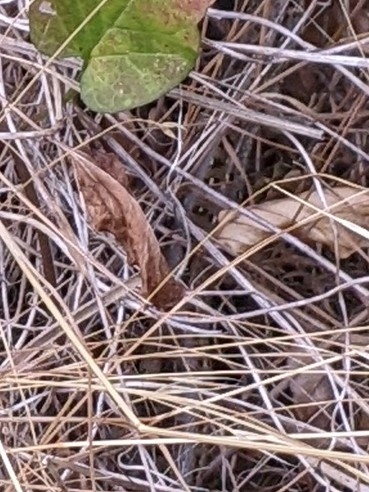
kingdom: Animalia
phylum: Chordata
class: Squamata
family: Lacertidae
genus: Lacerta
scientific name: Lacerta agilis
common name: Markfirben
